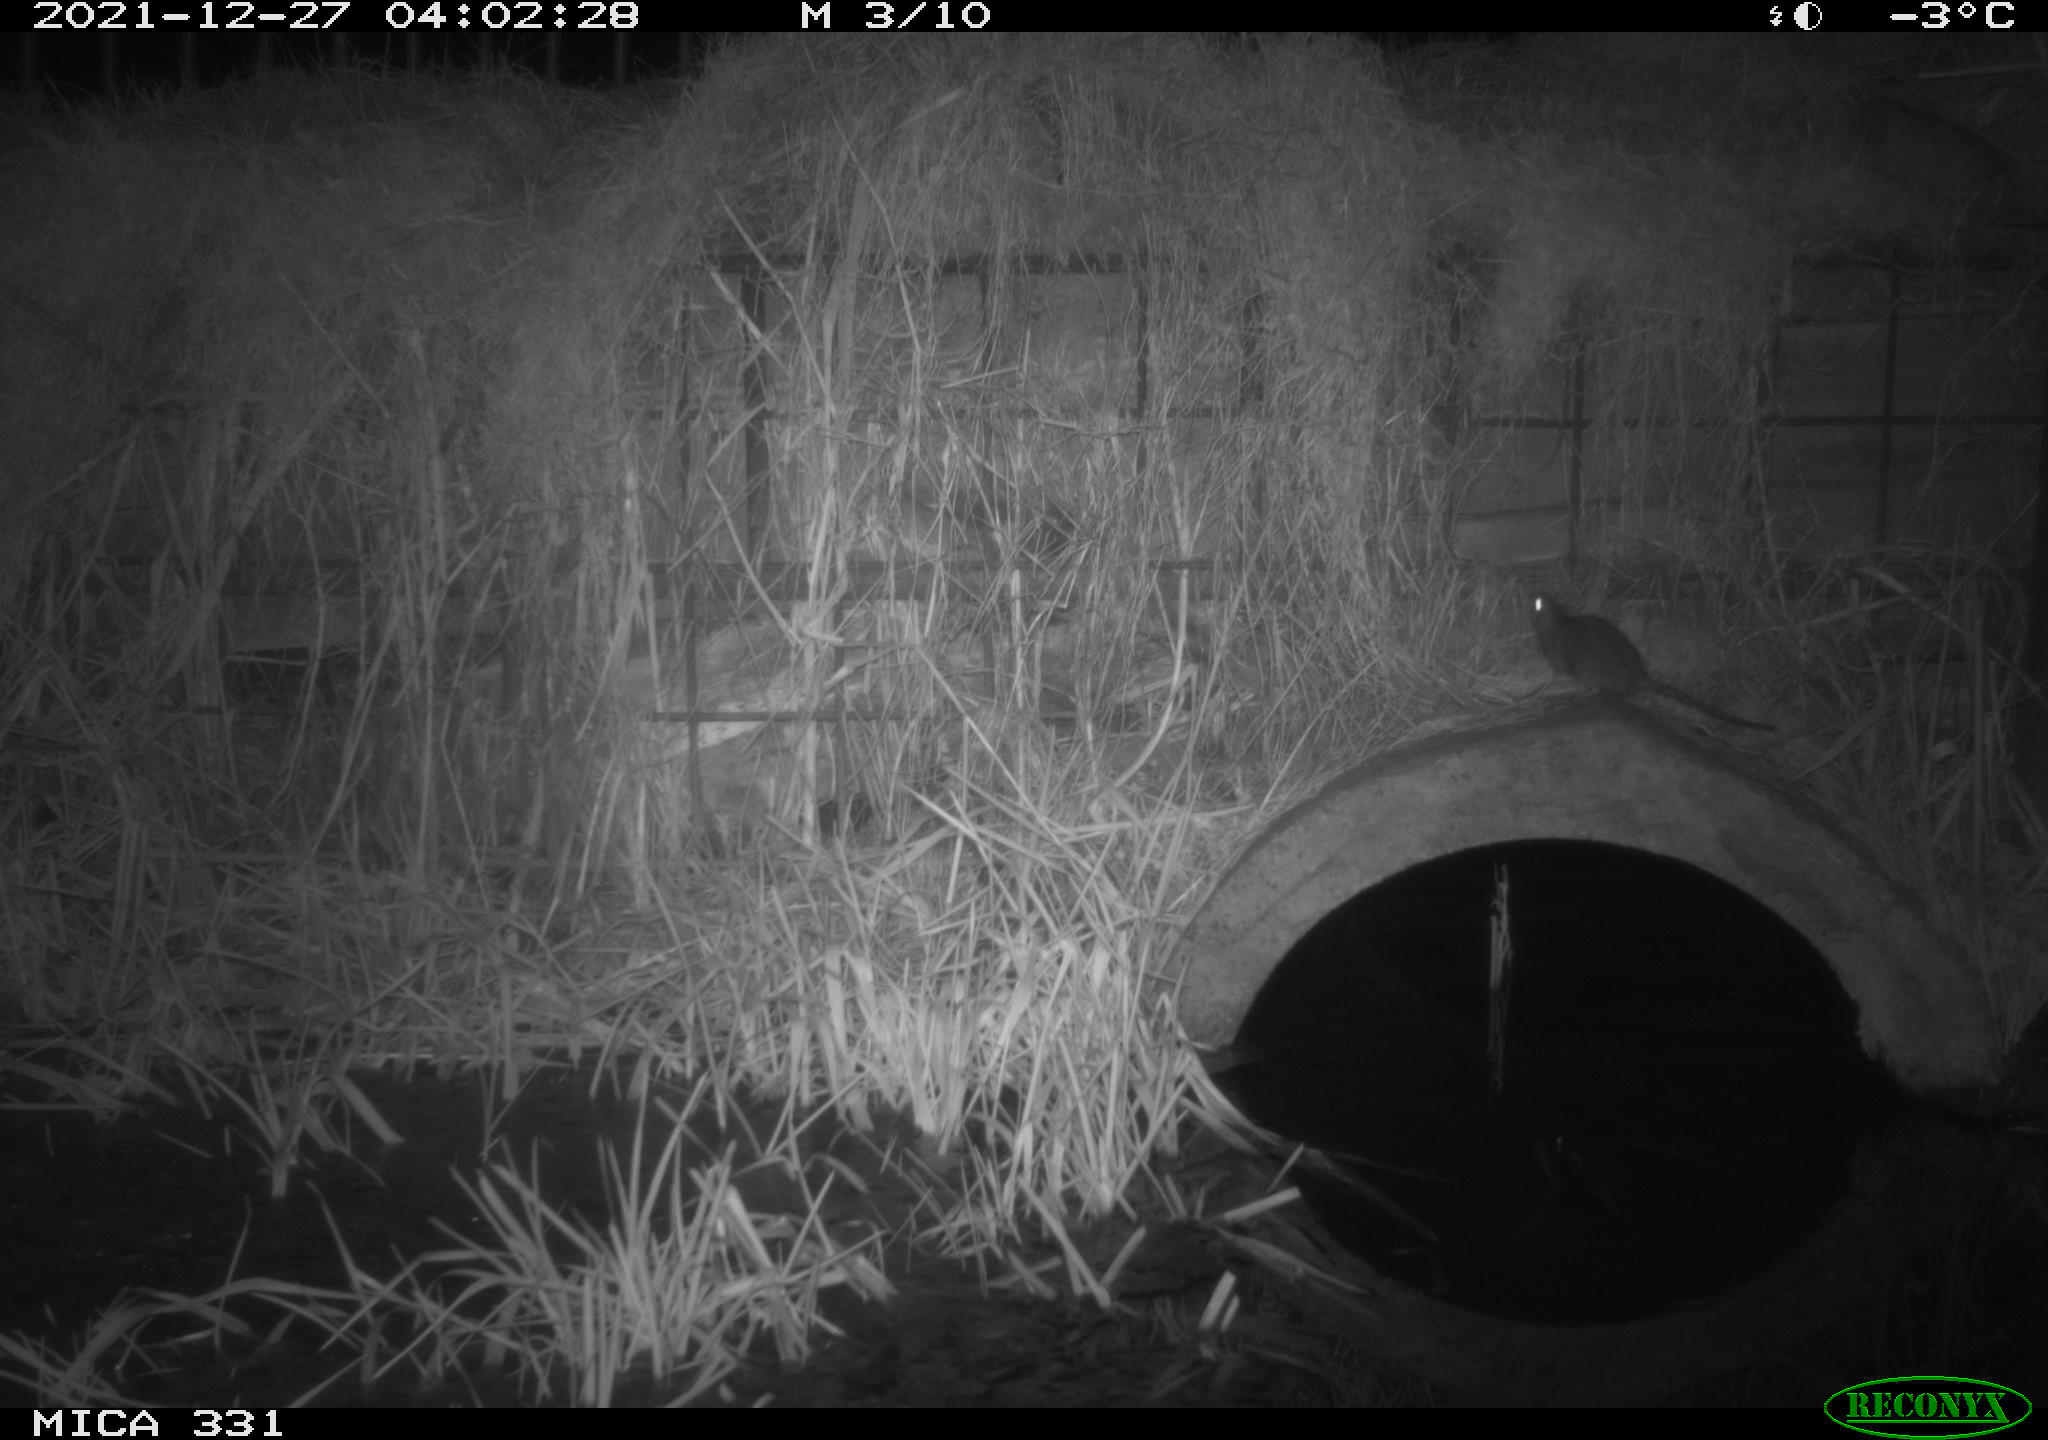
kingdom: Animalia
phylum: Chordata
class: Mammalia
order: Rodentia
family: Muridae
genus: Rattus
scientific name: Rattus norvegicus
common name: Brown rat
